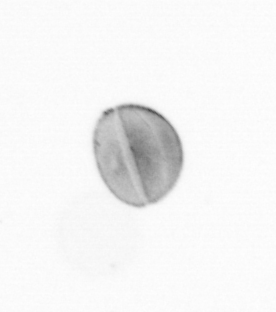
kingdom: Chromista
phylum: Ochrophyta
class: Bacillariophyceae
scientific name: Bacillariophyceae
